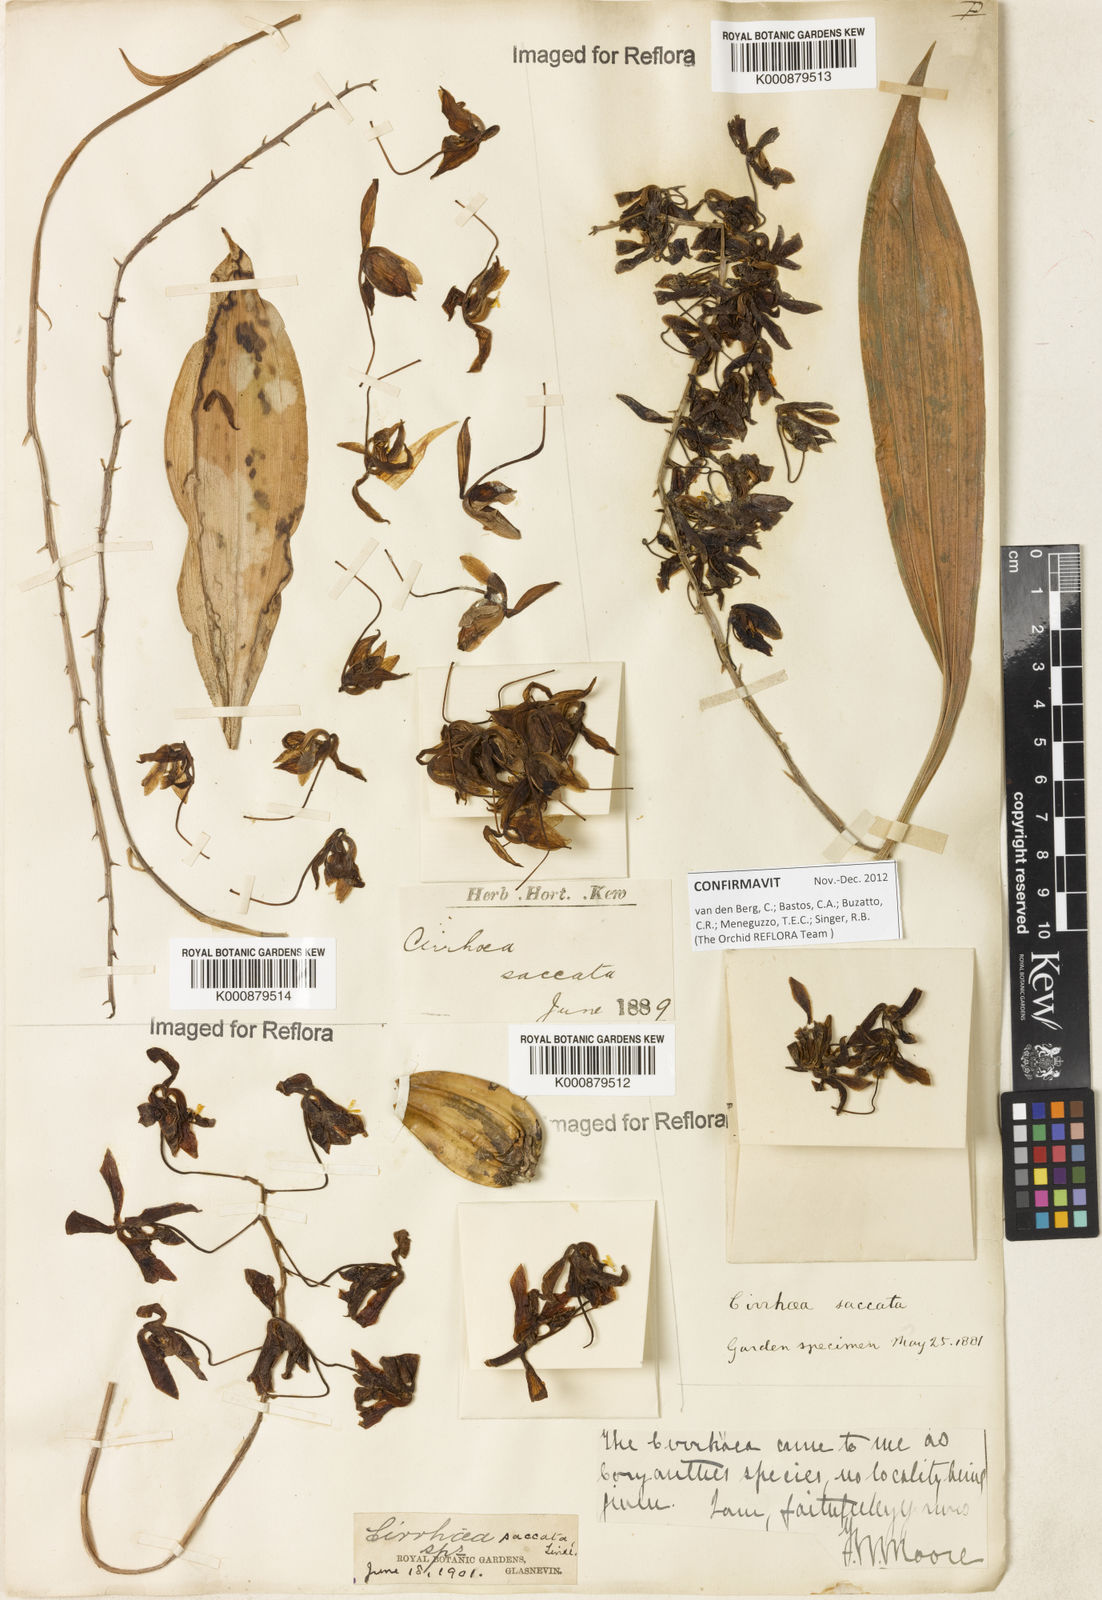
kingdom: Plantae
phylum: Tracheophyta
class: Liliopsida
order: Asparagales
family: Orchidaceae
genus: Cirrhaea
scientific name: Cirrhaea fuscolutea
